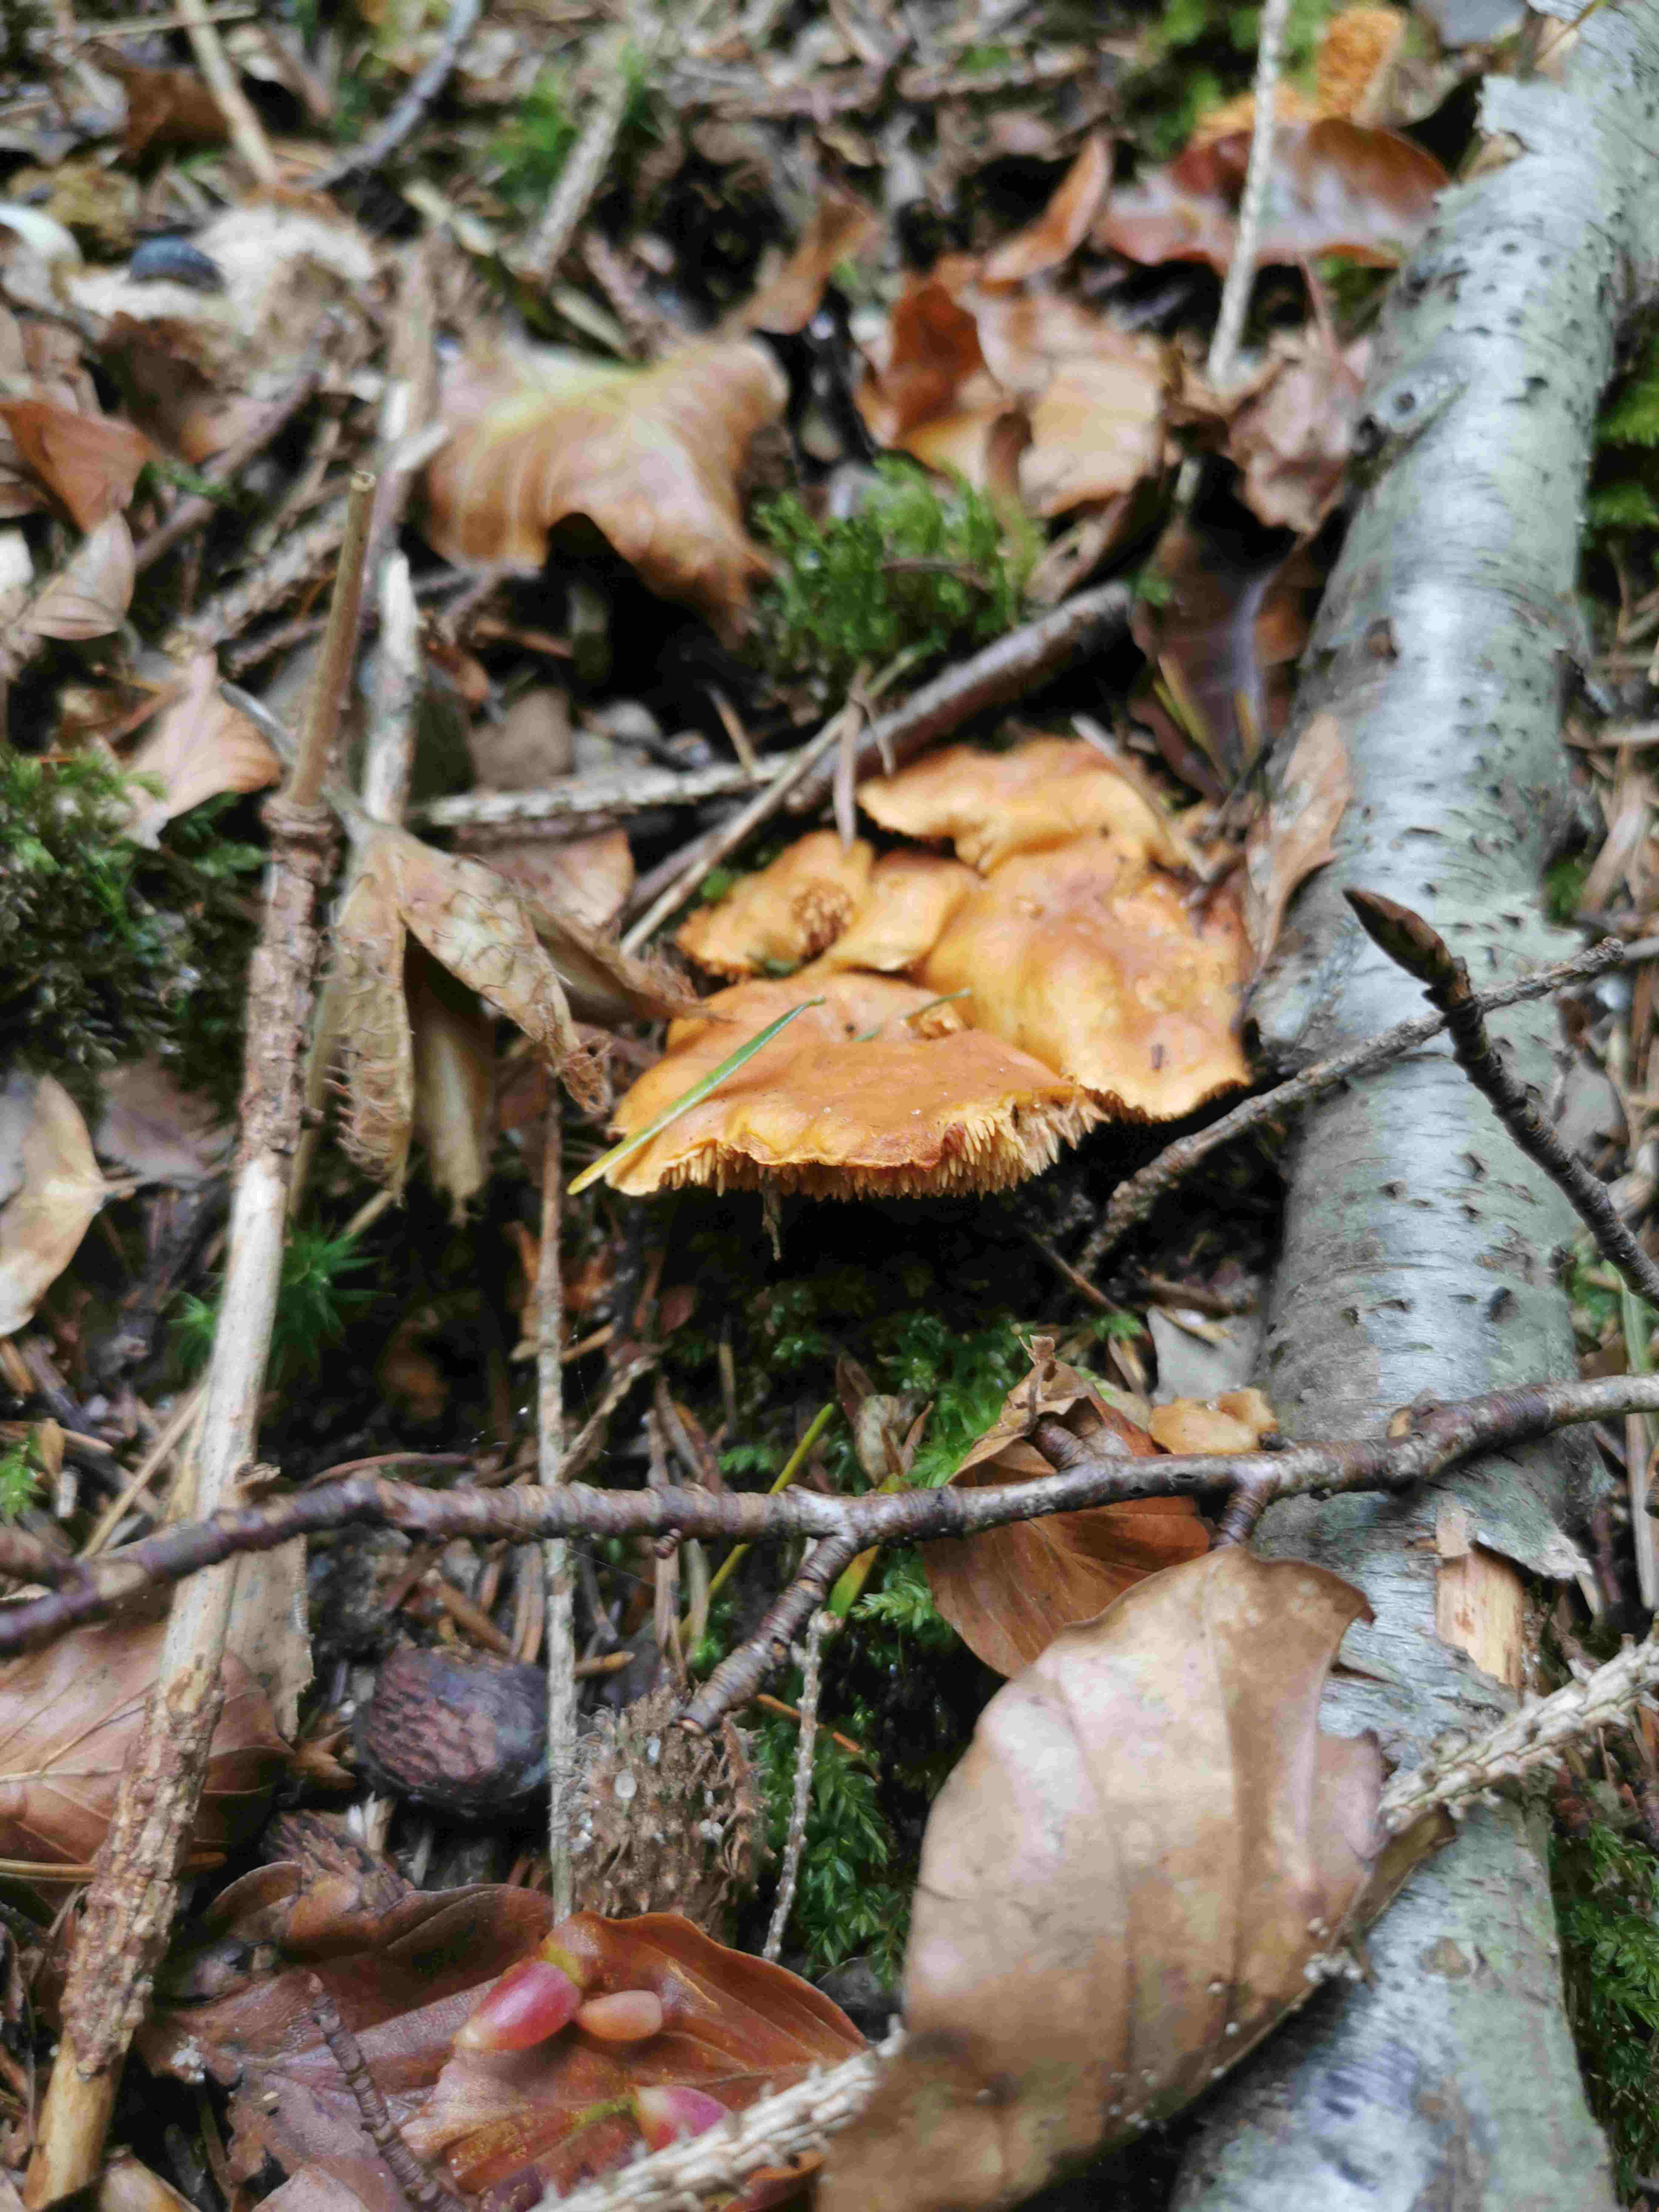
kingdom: Fungi
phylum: Basidiomycota
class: Agaricomycetes
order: Cantharellales
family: Hydnaceae
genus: Hydnum
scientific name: Hydnum
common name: pigsvamp
